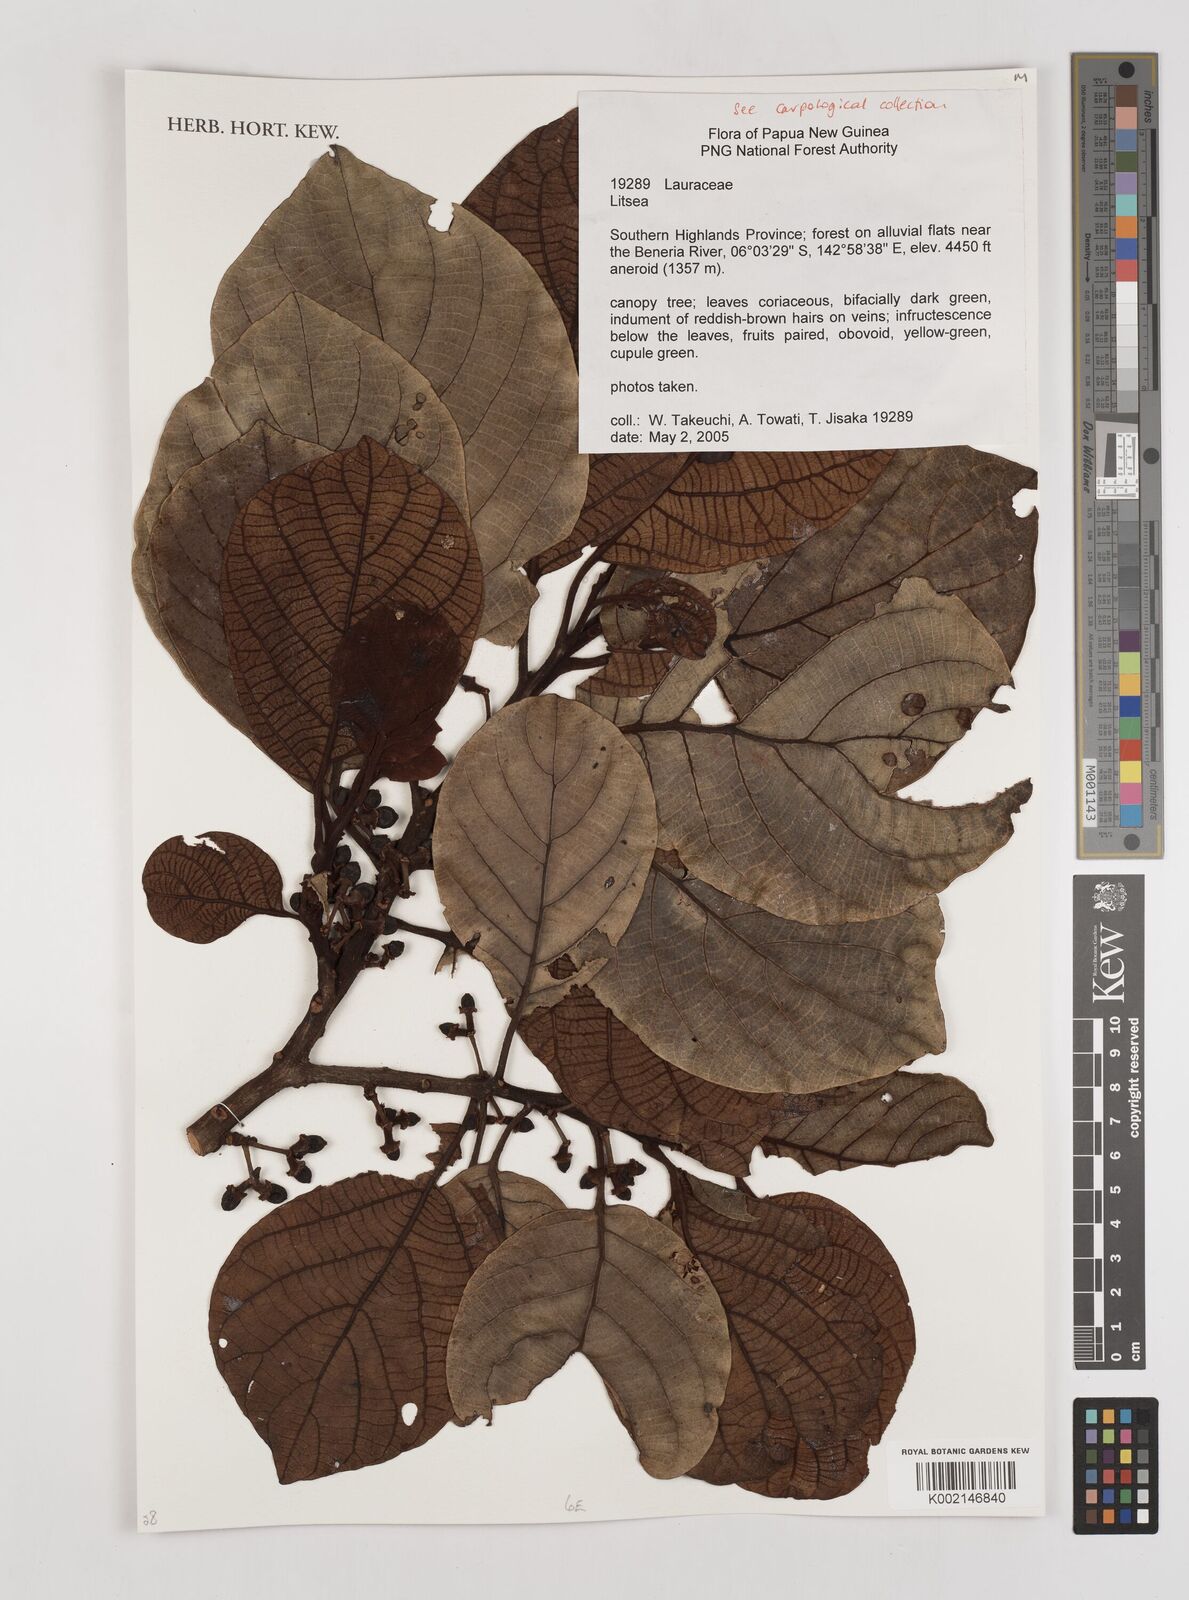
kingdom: Plantae
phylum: Tracheophyta
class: Magnoliopsida
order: Laurales
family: Lauraceae
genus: Litsea
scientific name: Litsea
